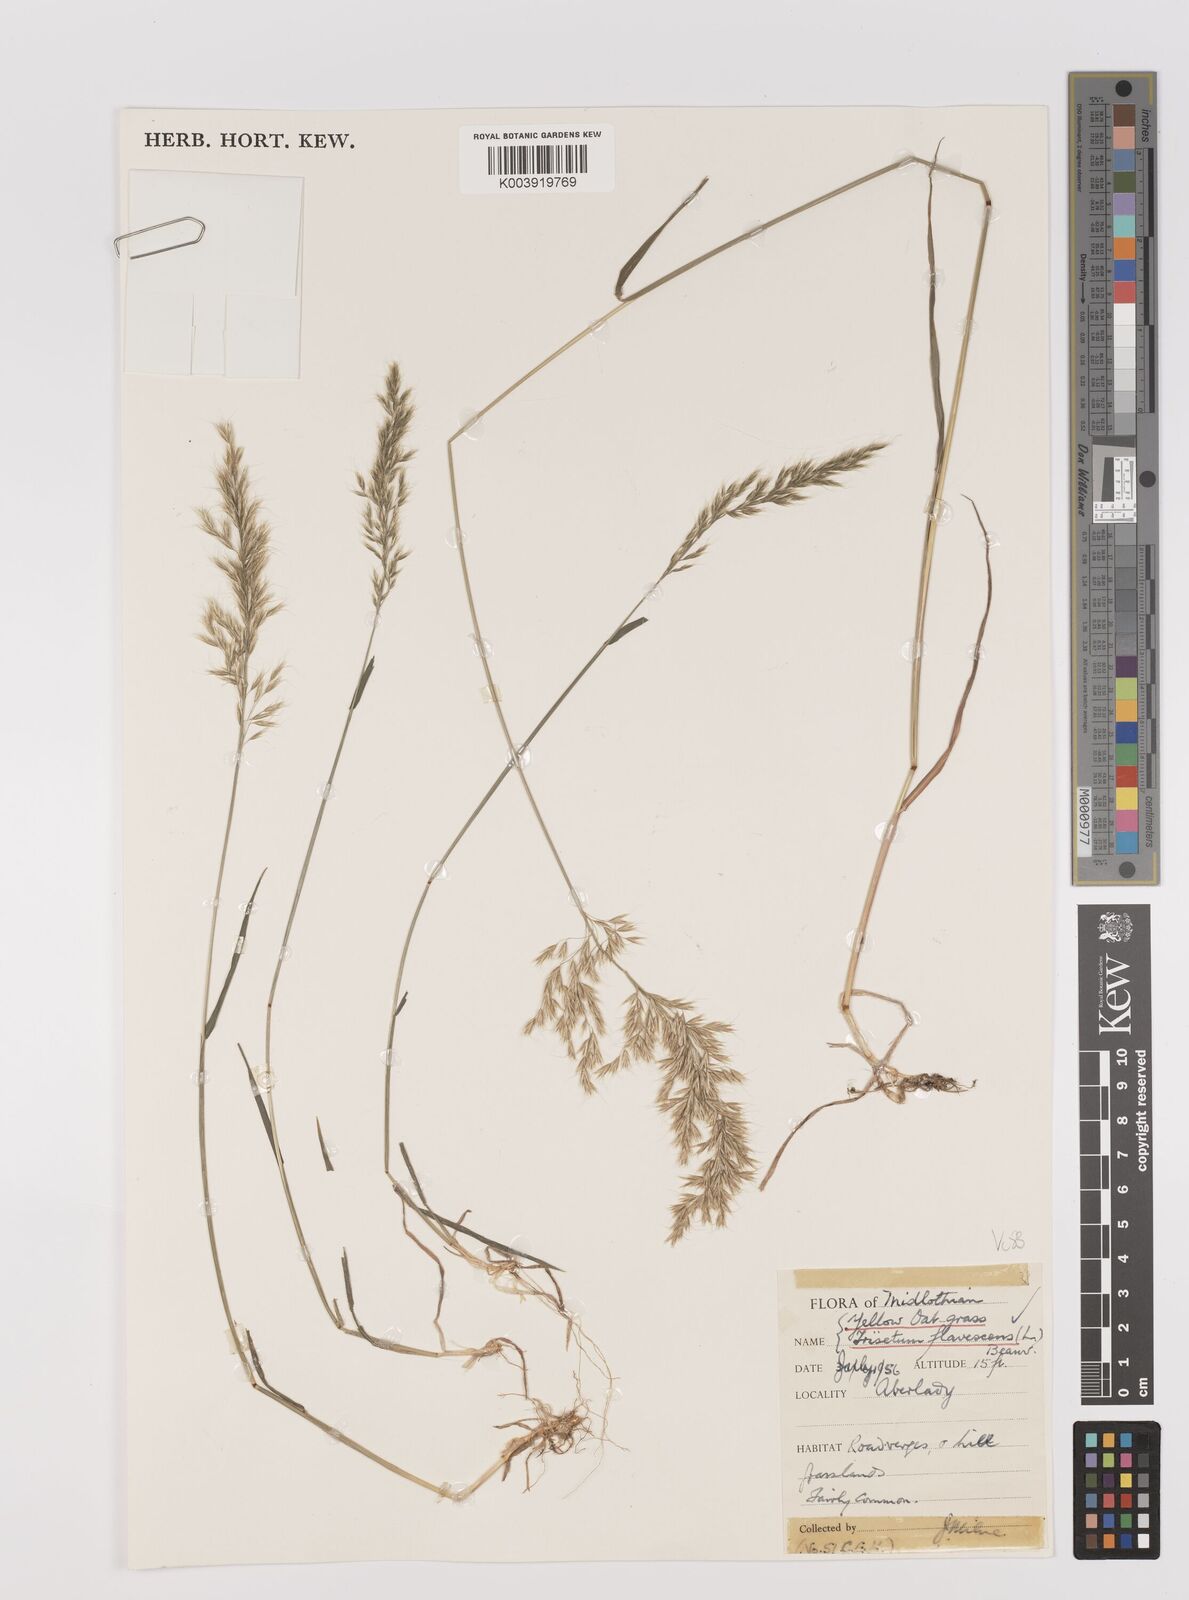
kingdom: Plantae
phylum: Tracheophyta
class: Liliopsida
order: Poales
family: Poaceae
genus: Trisetum
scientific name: Trisetum flavescens
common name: Yellow oat-grass
